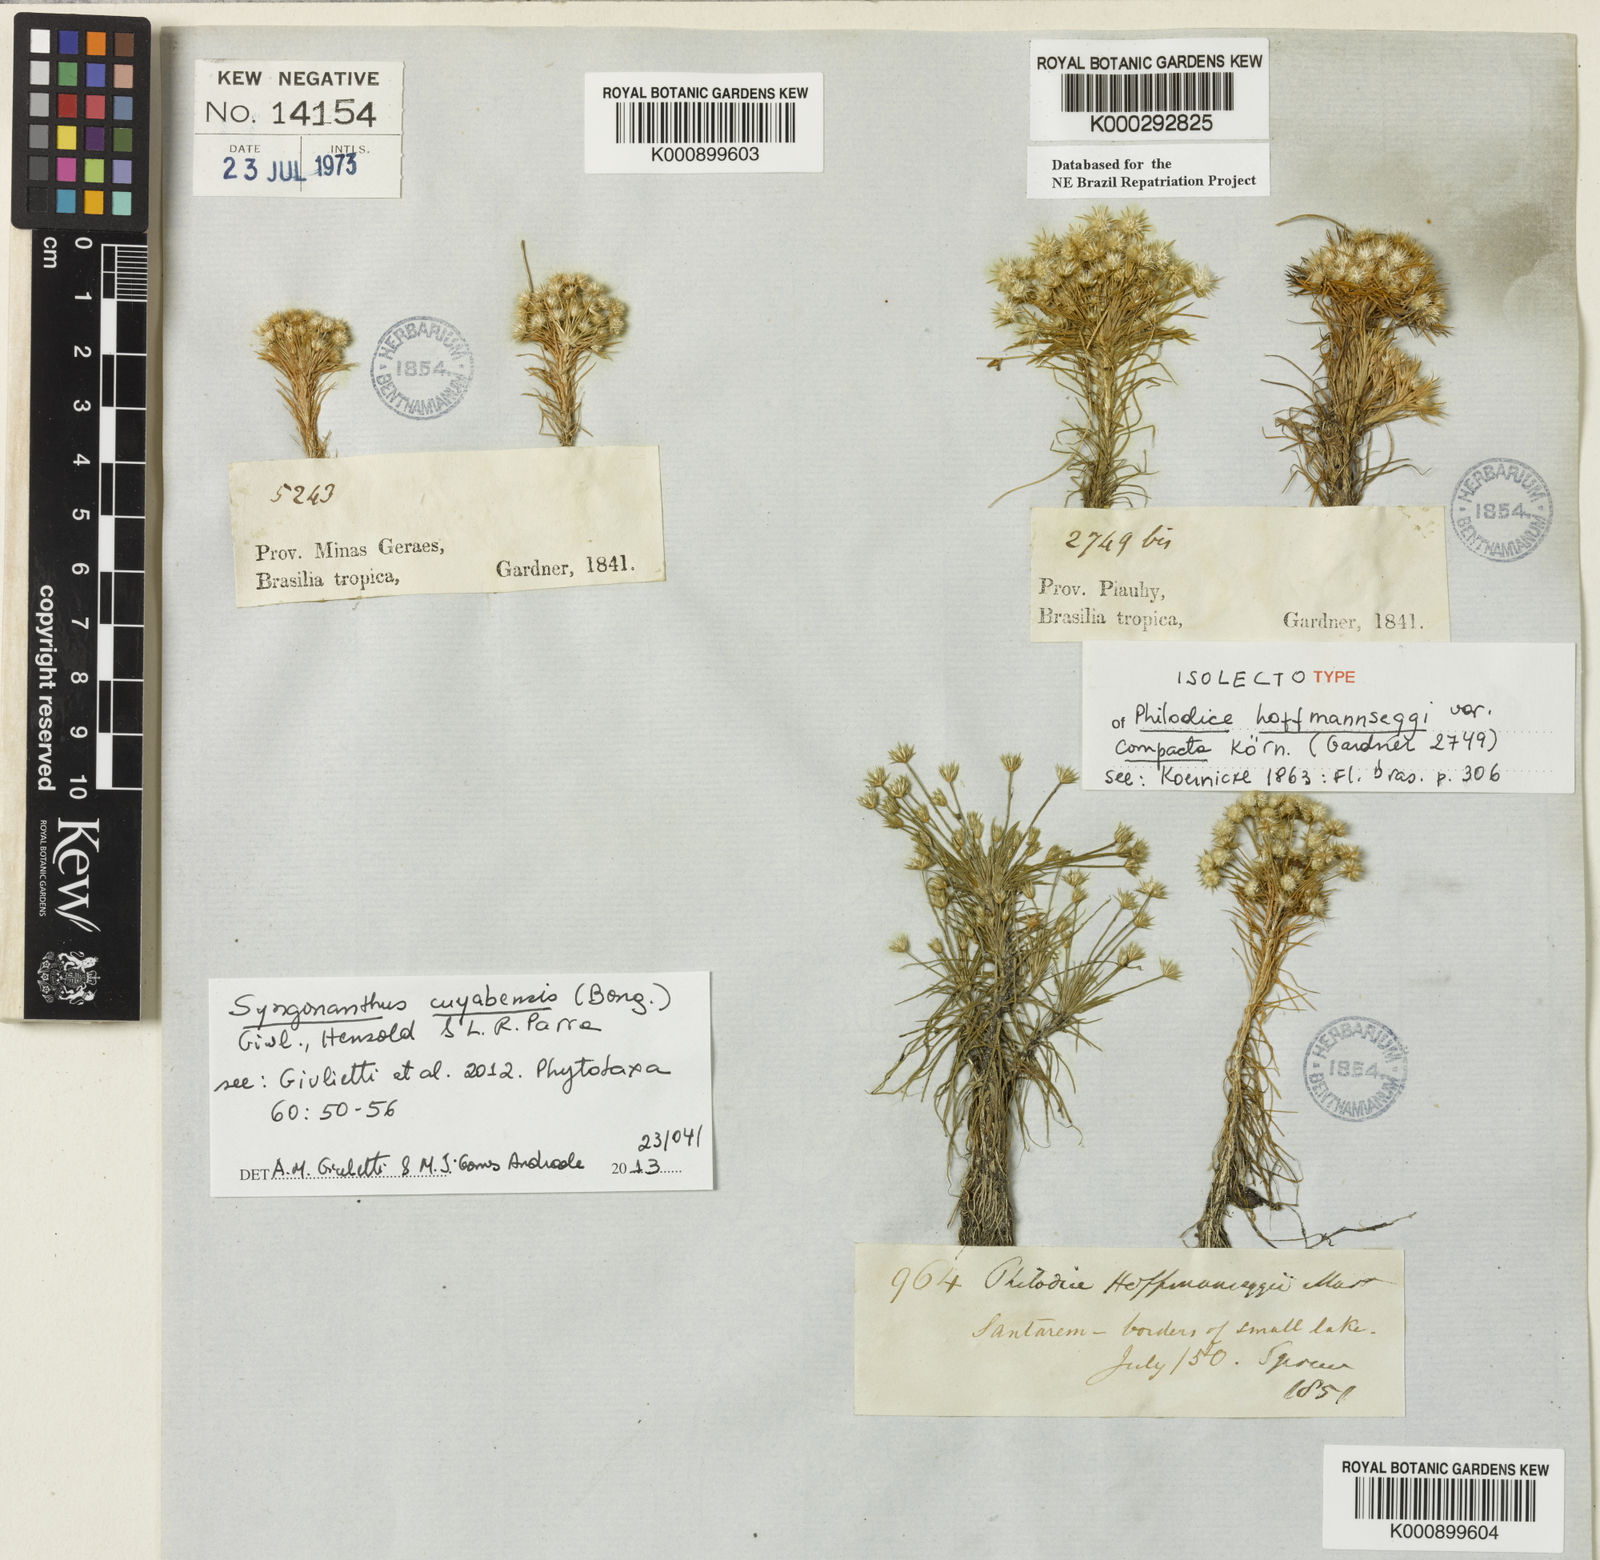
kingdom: Plantae
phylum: Tracheophyta
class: Liliopsida
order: Poales
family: Eriocaulaceae
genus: Syngonanthus
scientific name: Syngonanthus cuyabensis
